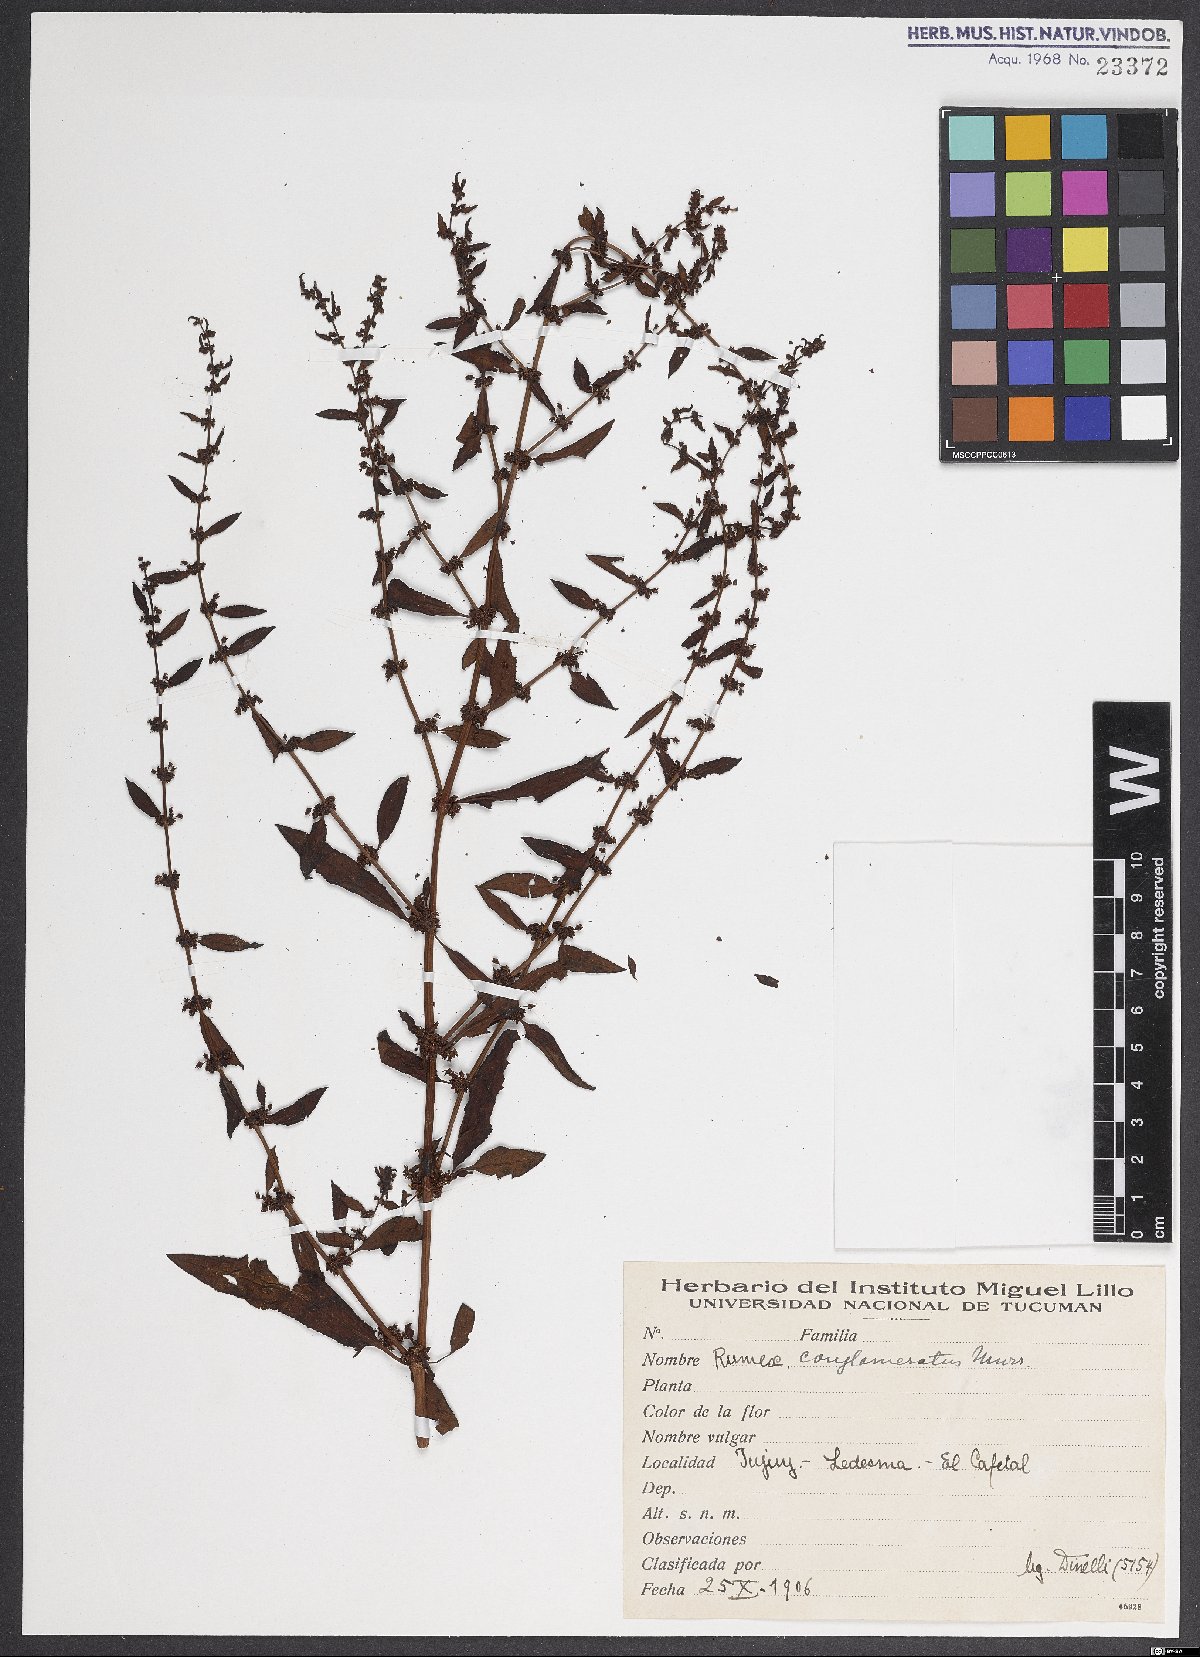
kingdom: Plantae
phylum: Tracheophyta
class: Magnoliopsida
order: Caryophyllales
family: Polygonaceae
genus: Rumex
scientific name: Rumex conglomeratus
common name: Clustered dock
